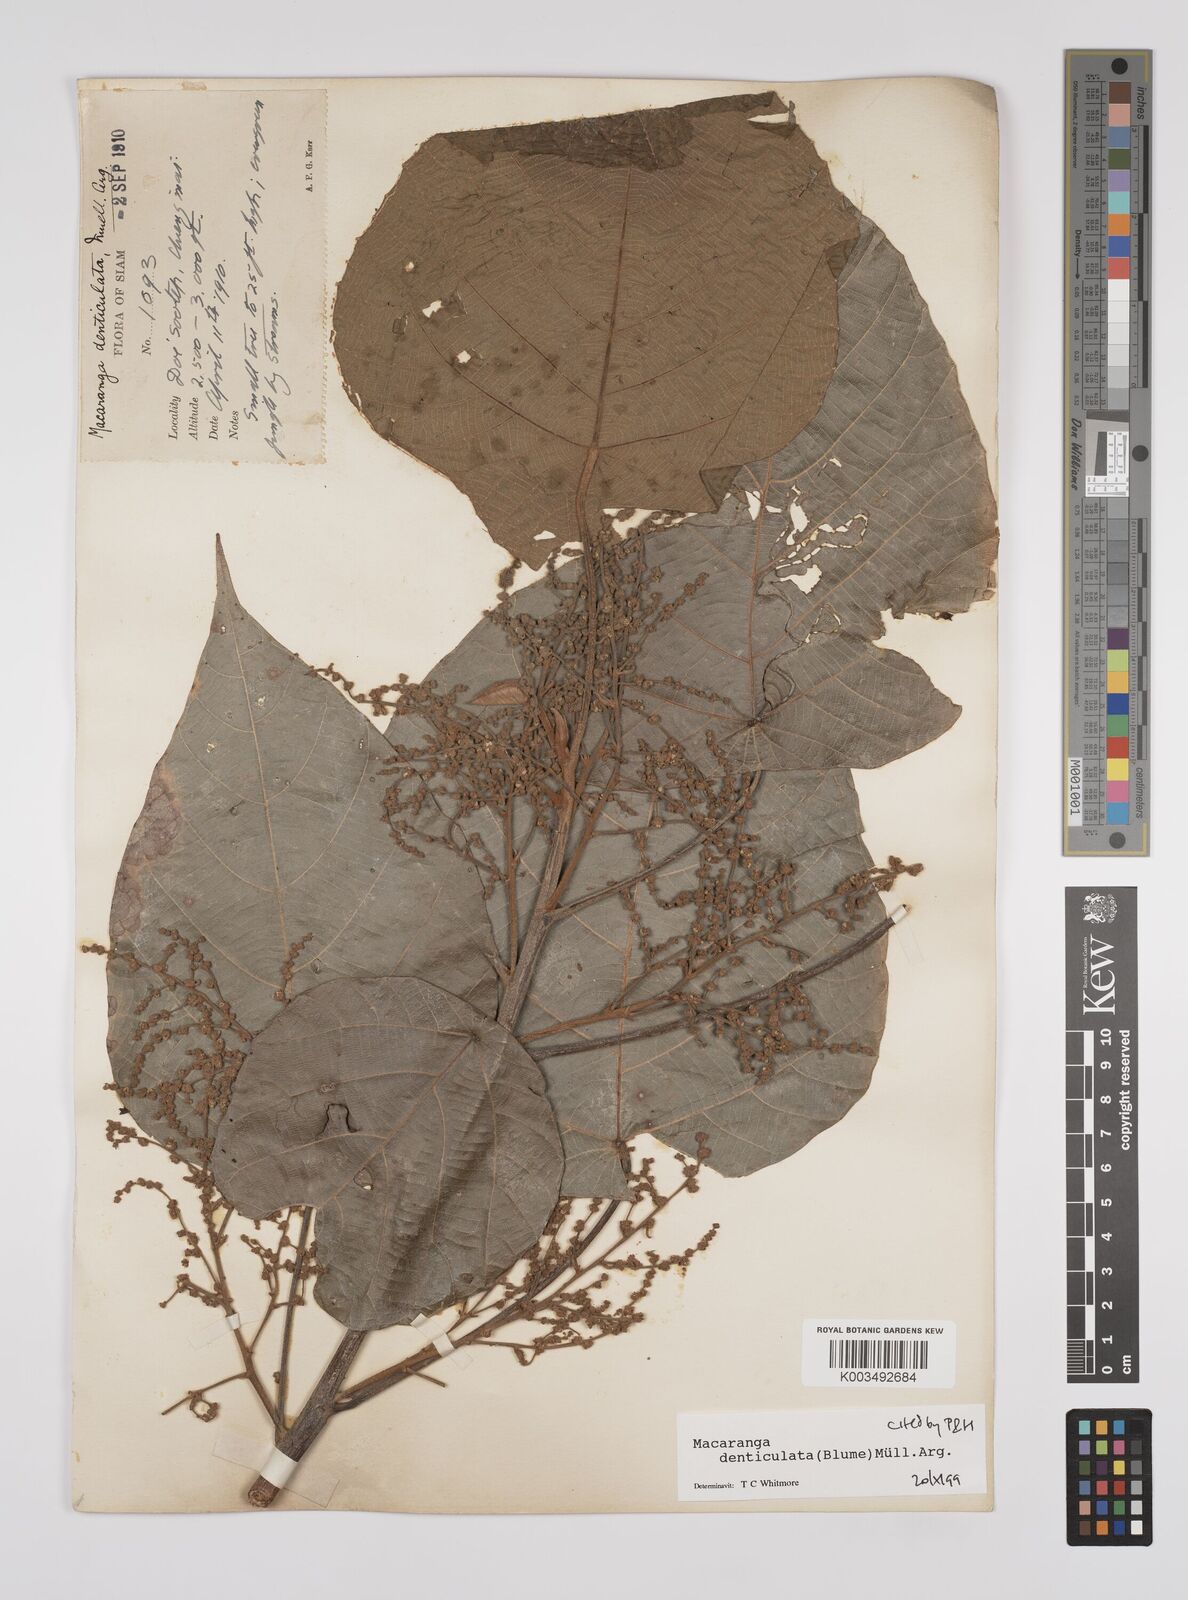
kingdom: Plantae
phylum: Tracheophyta
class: Magnoliopsida
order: Malpighiales
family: Euphorbiaceae
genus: Macaranga
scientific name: Macaranga denticulata
